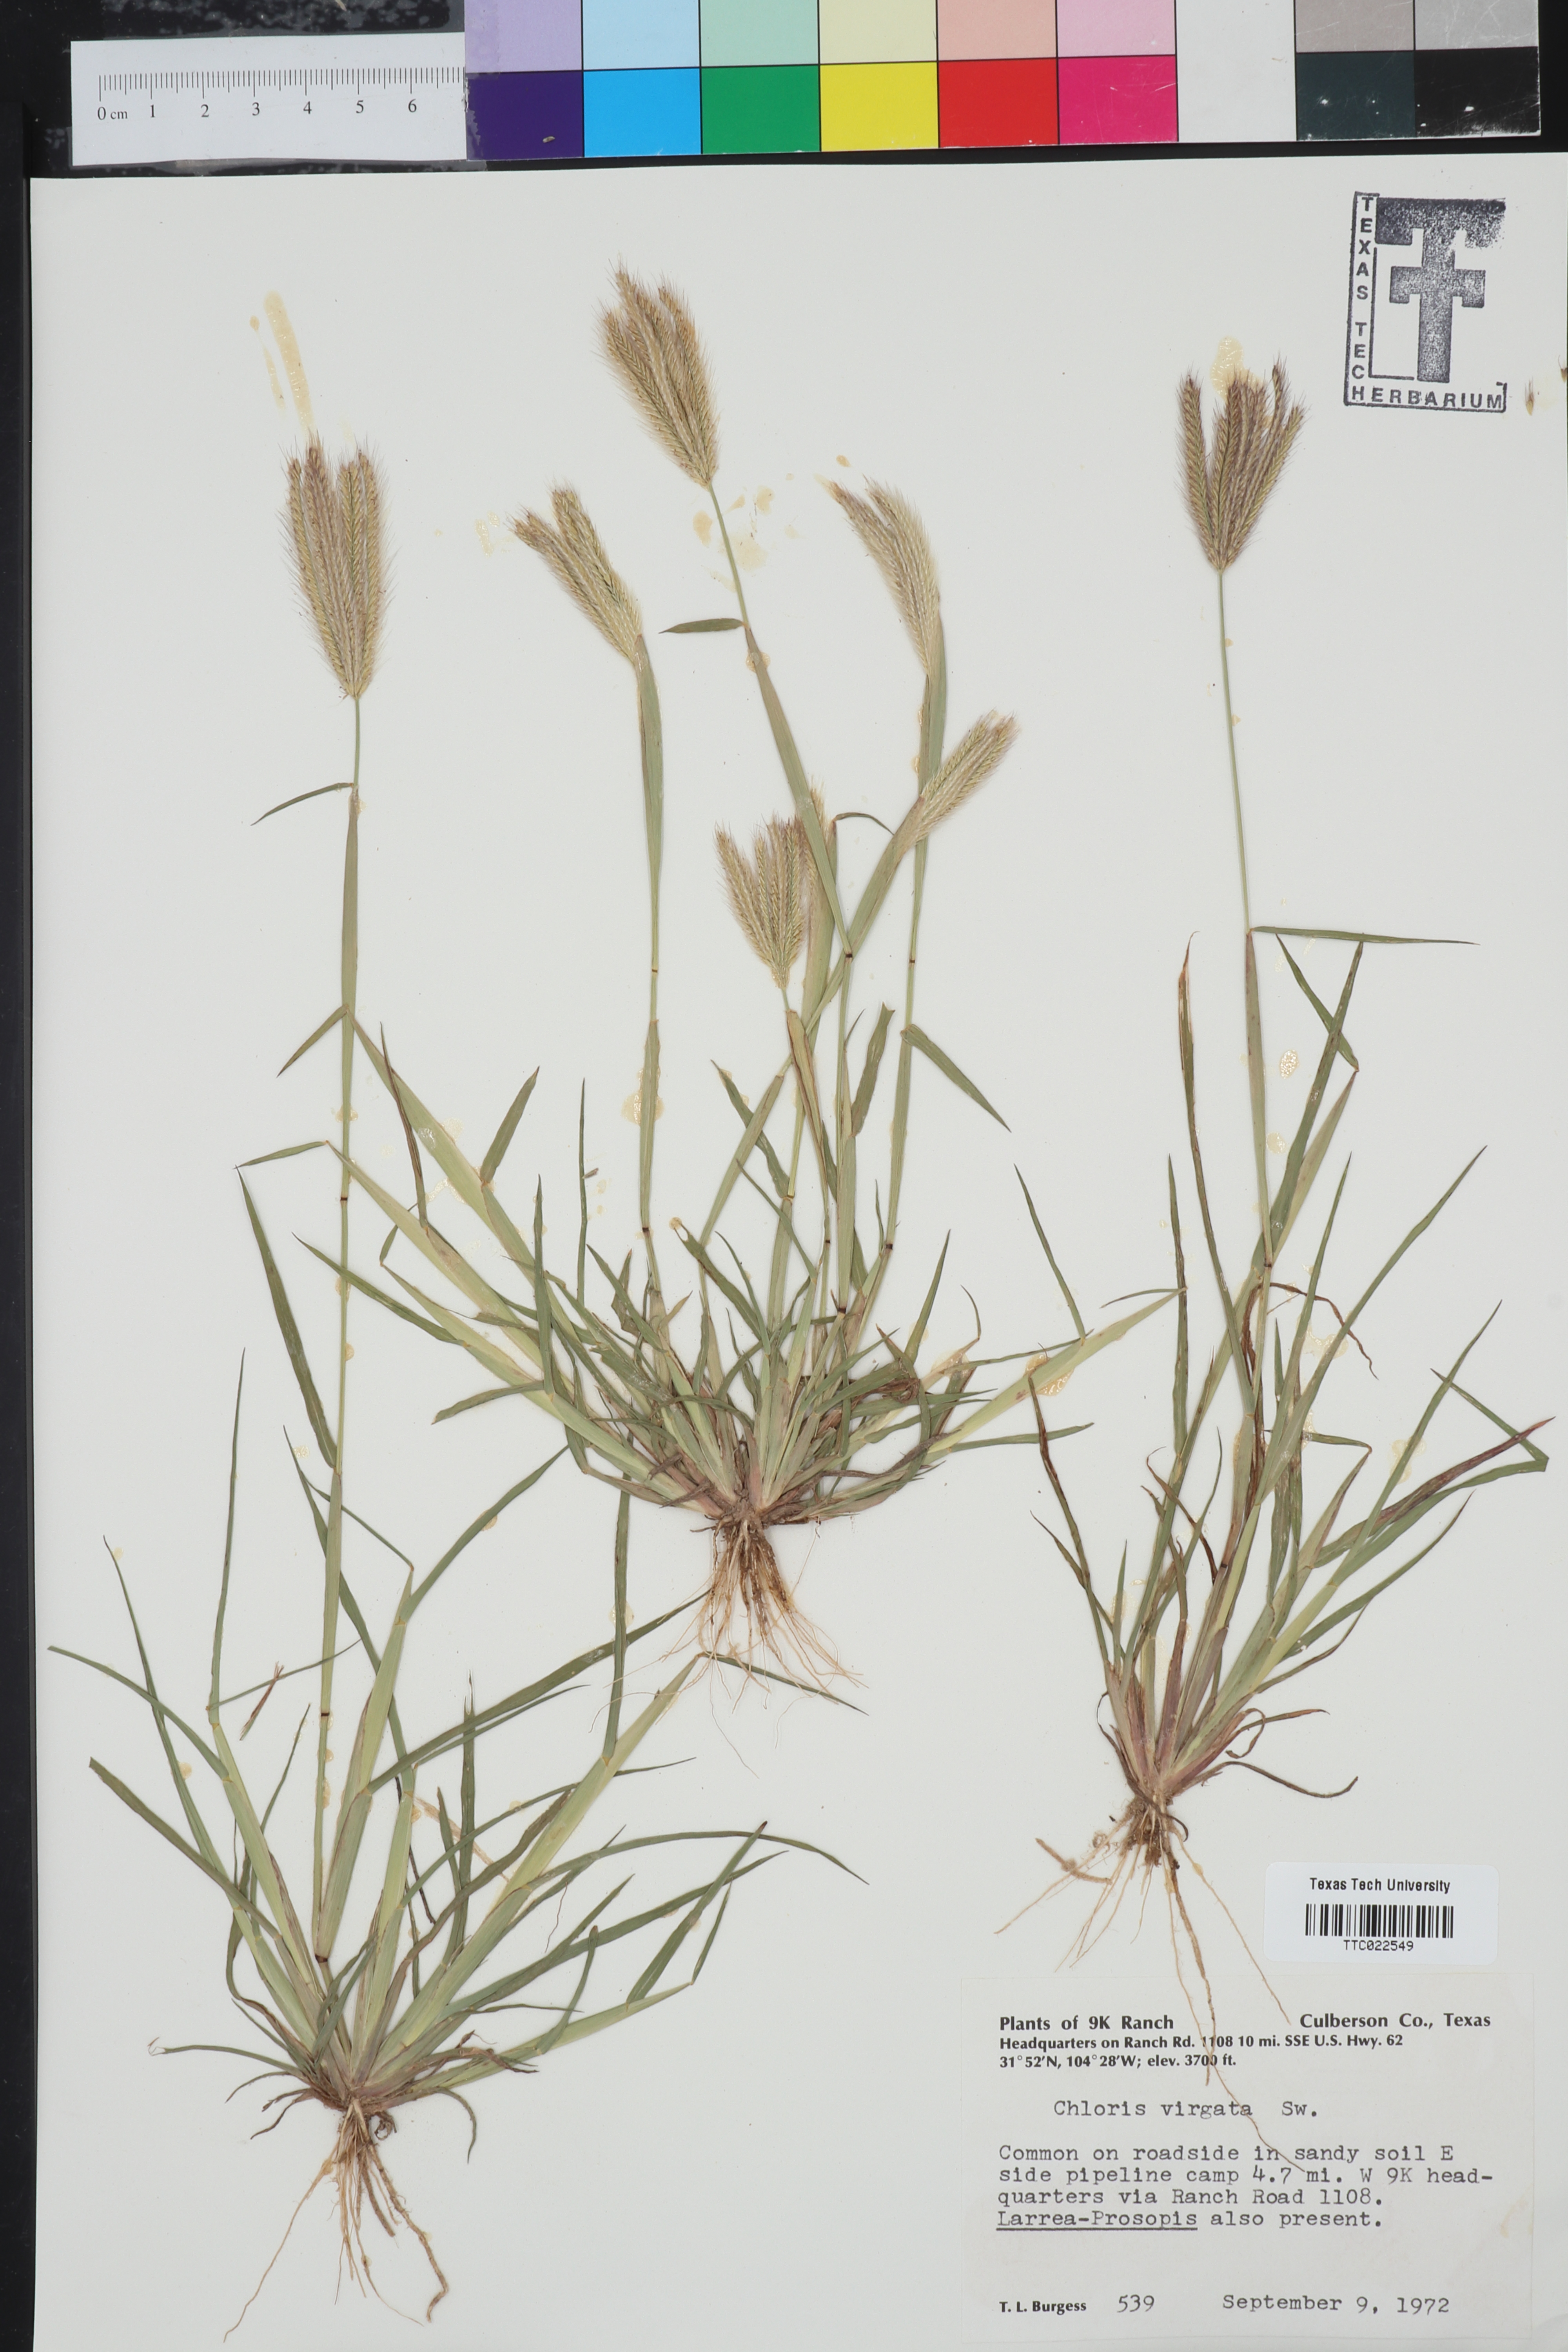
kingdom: Plantae
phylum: Tracheophyta
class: Liliopsida
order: Poales
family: Poaceae
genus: Chloris
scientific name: Chloris virgata
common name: Feathery rhodes-grass
